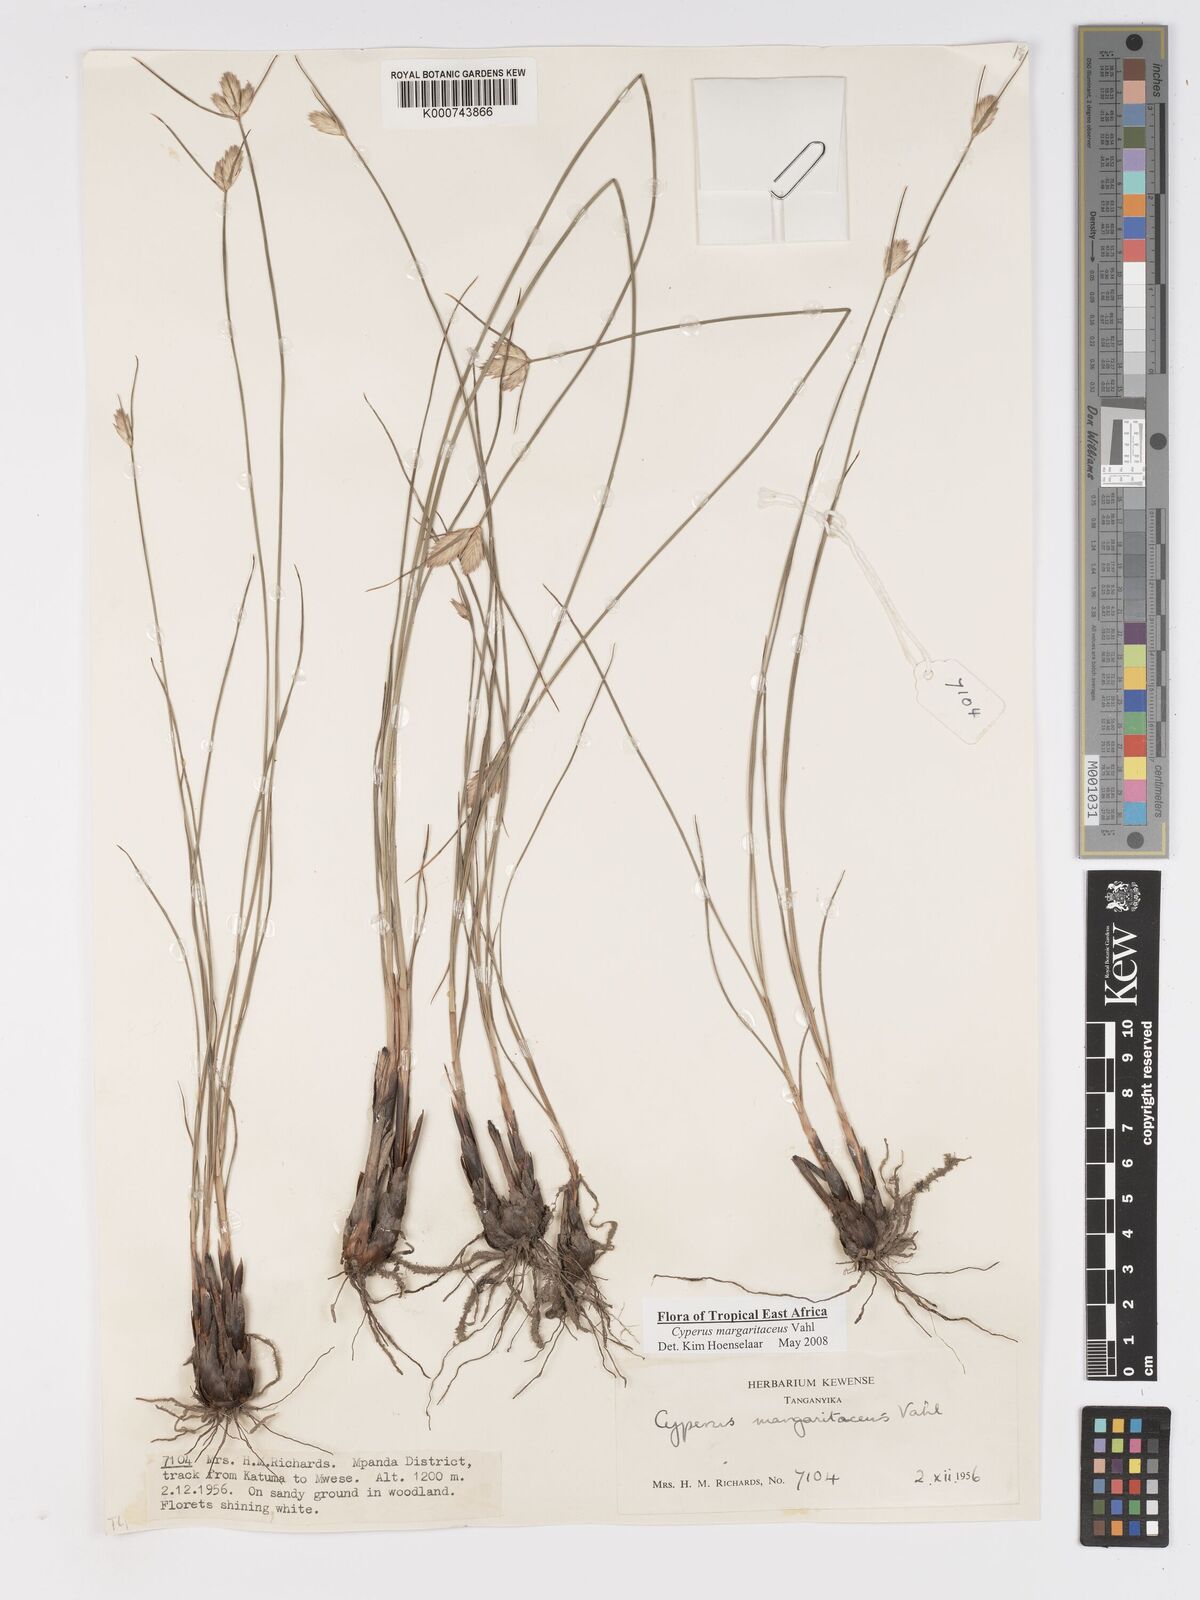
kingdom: Plantae
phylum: Tracheophyta
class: Liliopsida
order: Poales
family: Cyperaceae
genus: Cyperus
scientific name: Cyperus margaritaceus
